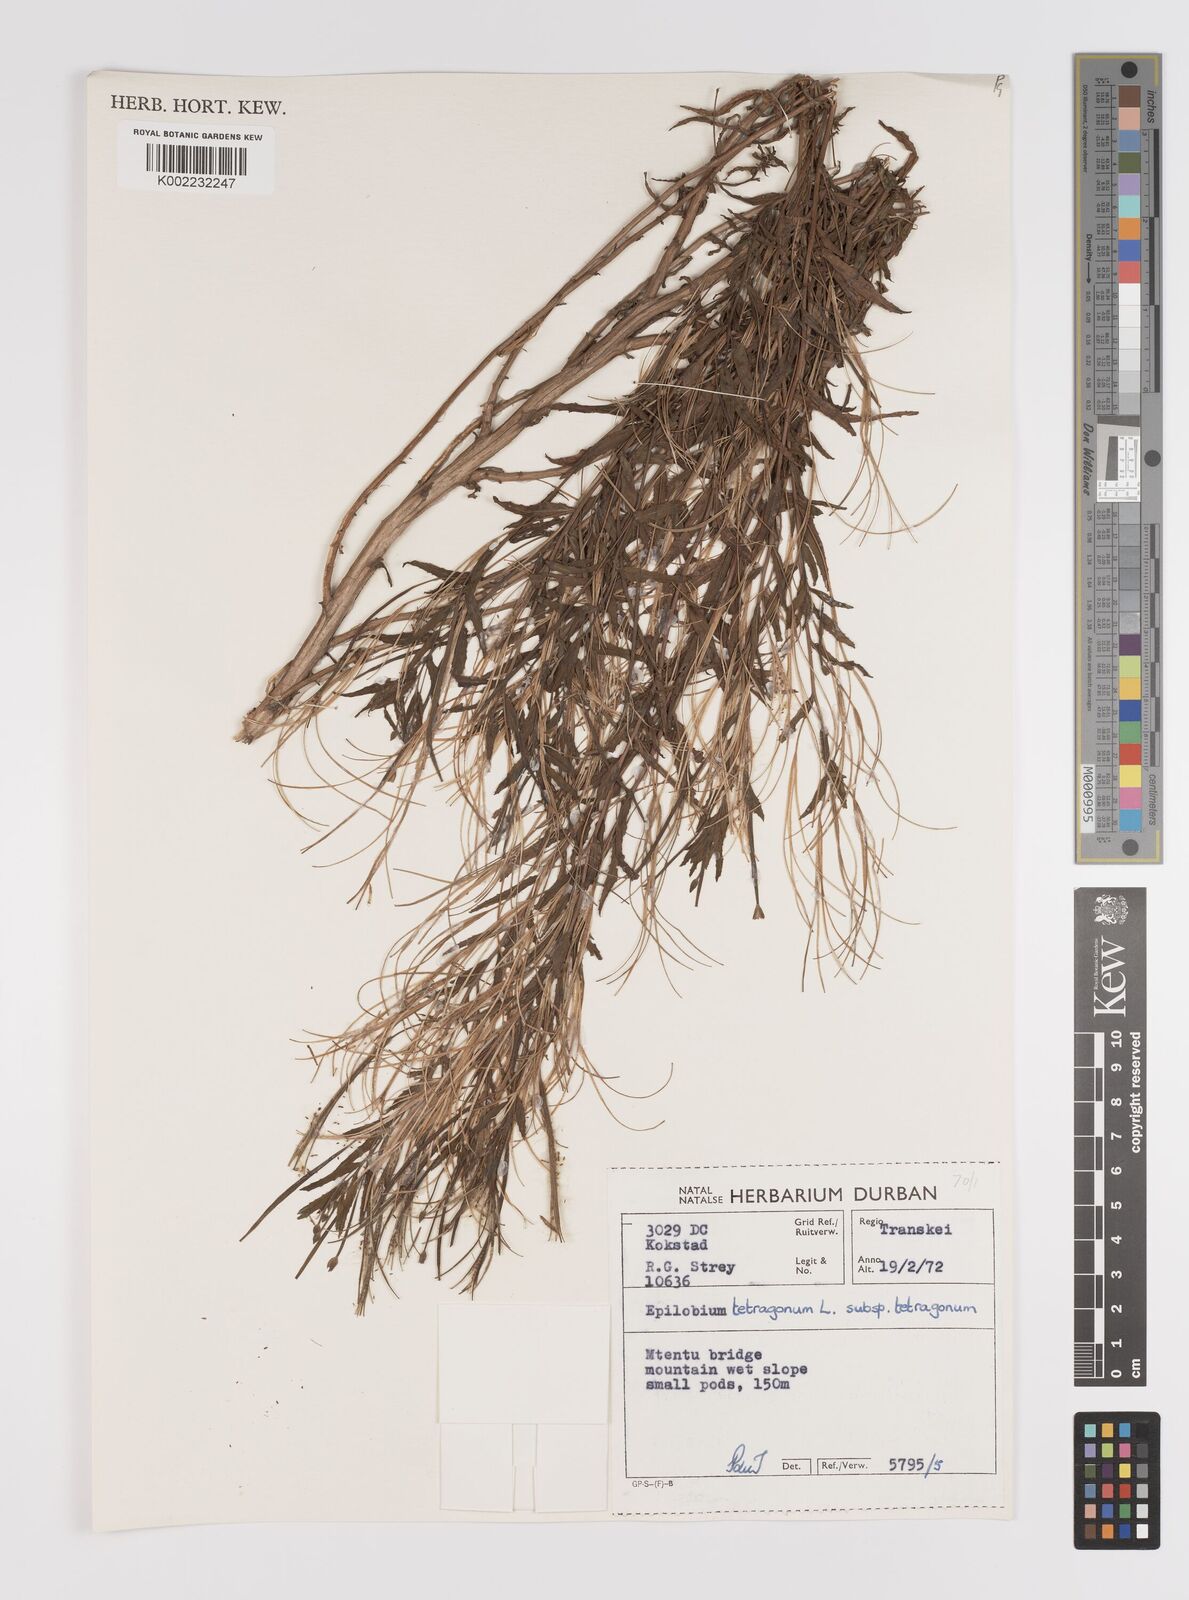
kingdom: Plantae
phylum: Tracheophyta
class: Magnoliopsida
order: Myrtales
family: Onagraceae
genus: Epilobium
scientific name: Epilobium tetragonum
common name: Square-stemmed willowherb
